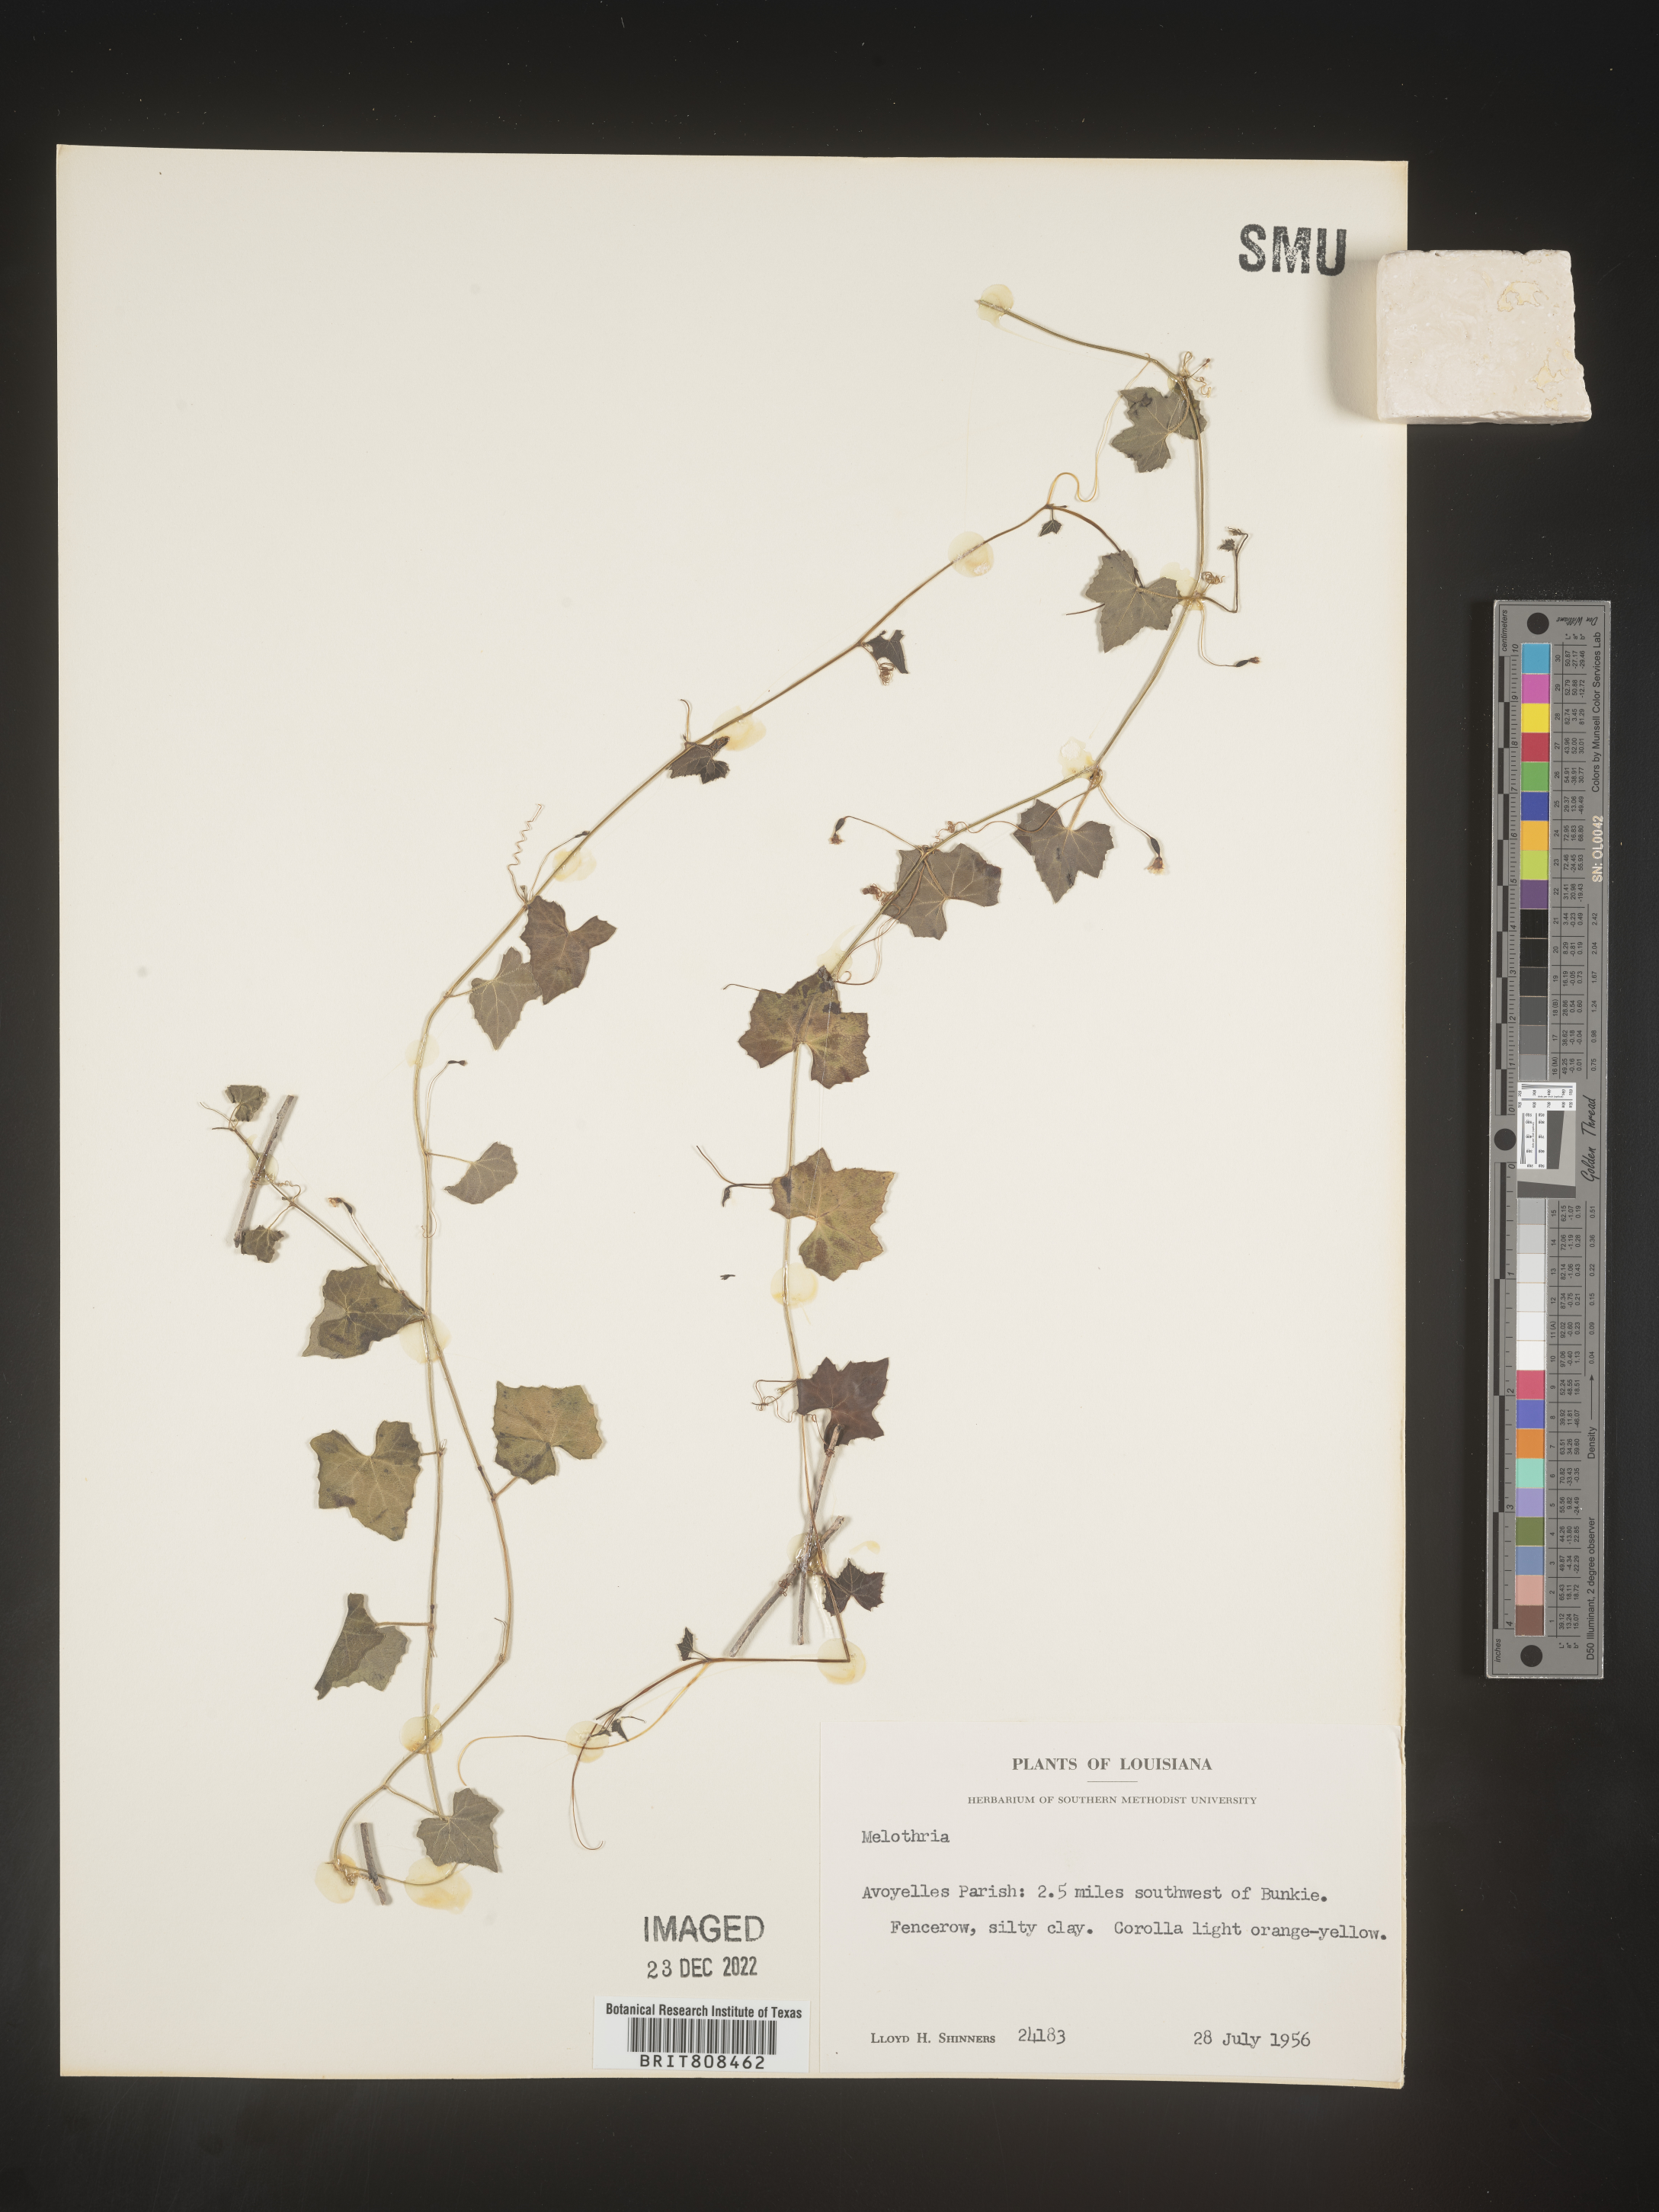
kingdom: Plantae
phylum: Tracheophyta
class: Magnoliopsida
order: Cucurbitales
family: Cucurbitaceae
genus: Melothria
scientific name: Melothria pendula
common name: Creeping-cucumber
